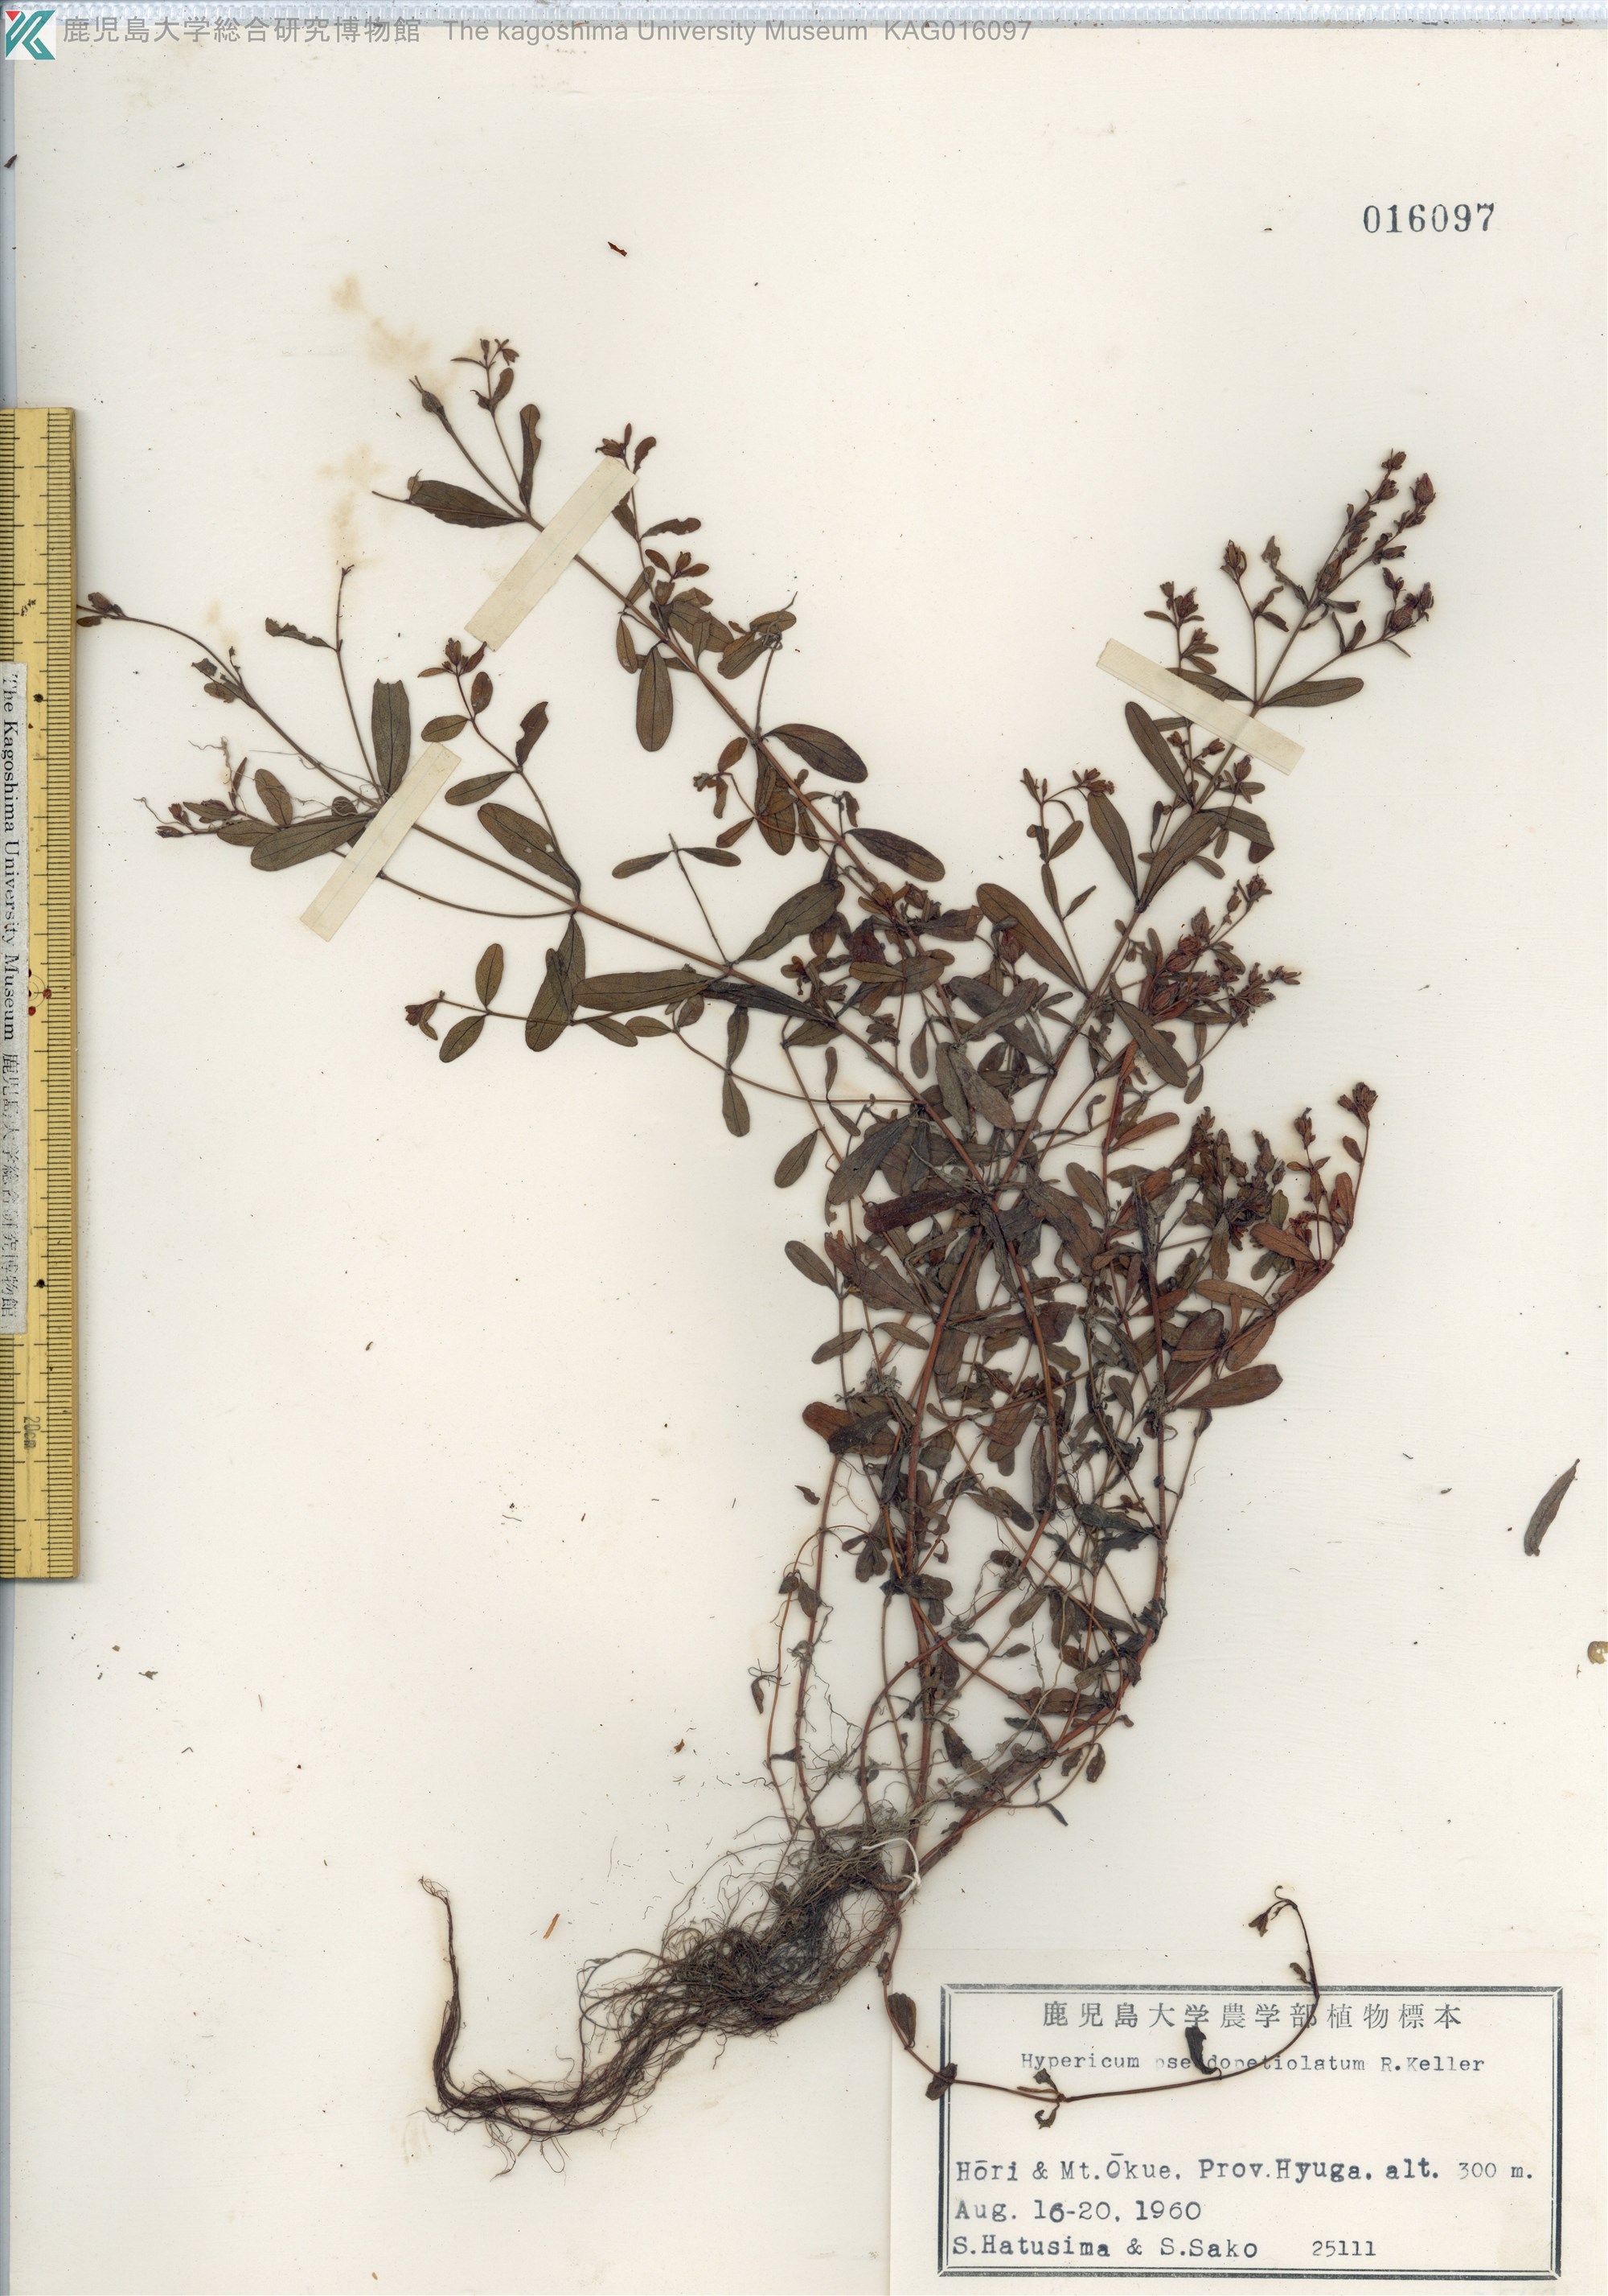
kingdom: Plantae
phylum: Tracheophyta
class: Magnoliopsida
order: Malpighiales
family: Hypericaceae
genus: Hypericum
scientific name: Hypericum pseudopetiolatum
